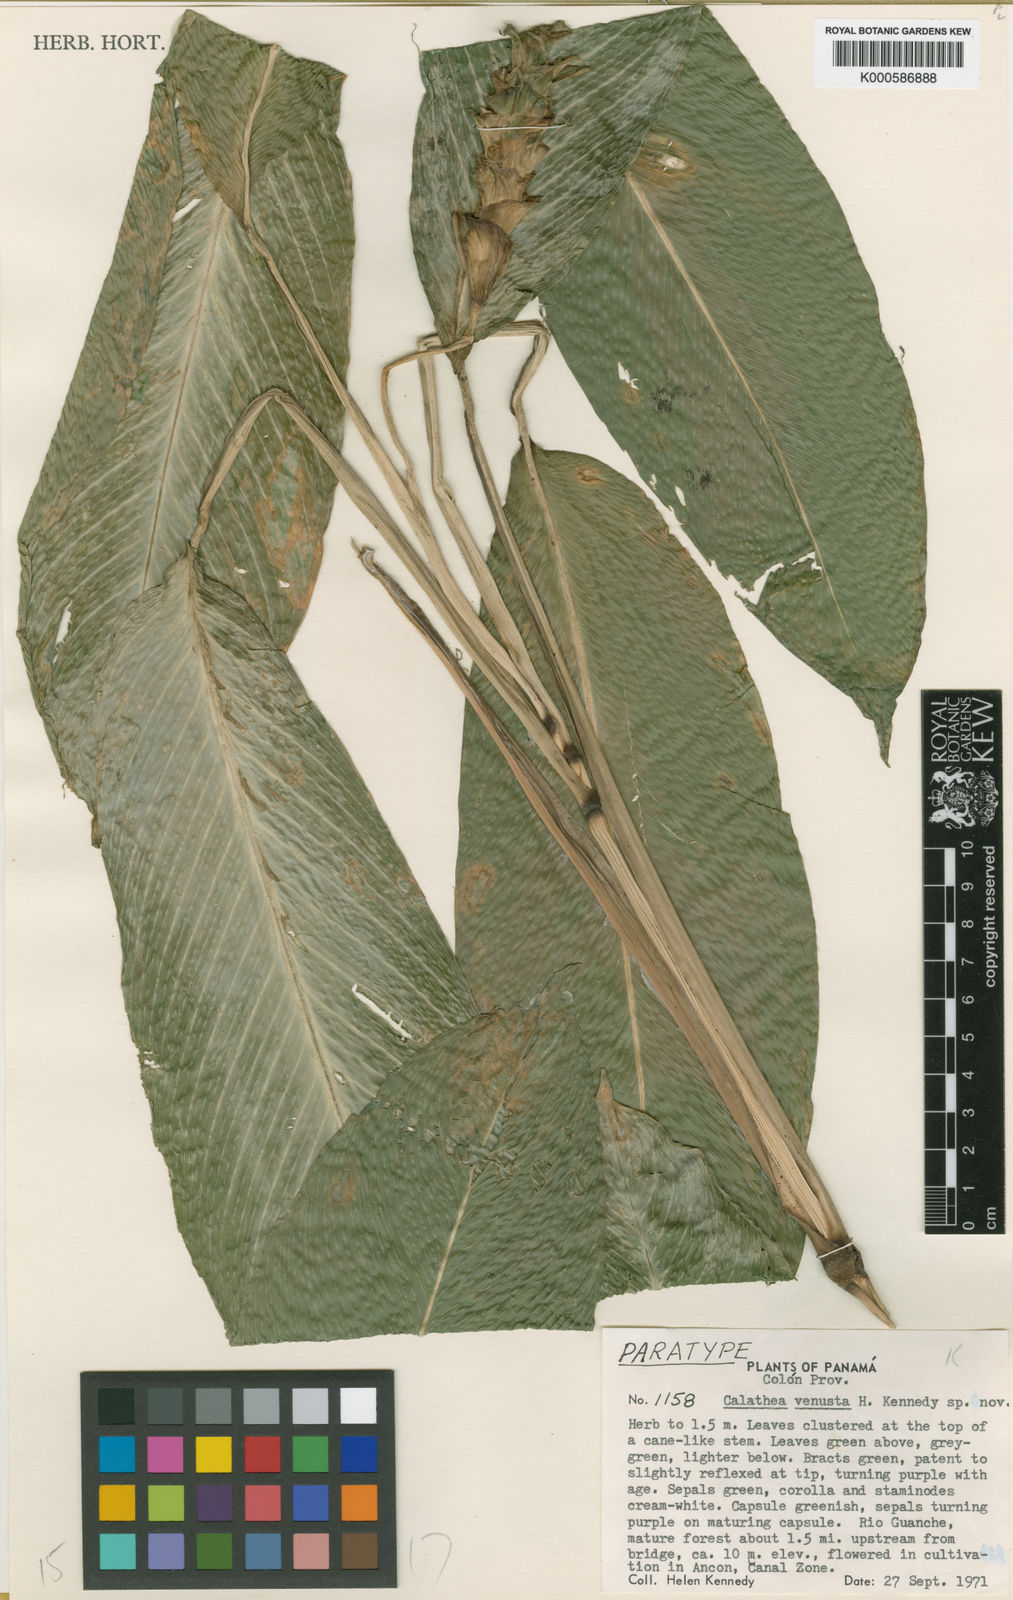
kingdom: Plantae
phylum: Tracheophyta
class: Liliopsida
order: Zingiberales
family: Marantaceae
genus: Goeppertia
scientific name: Goeppertia venusta
